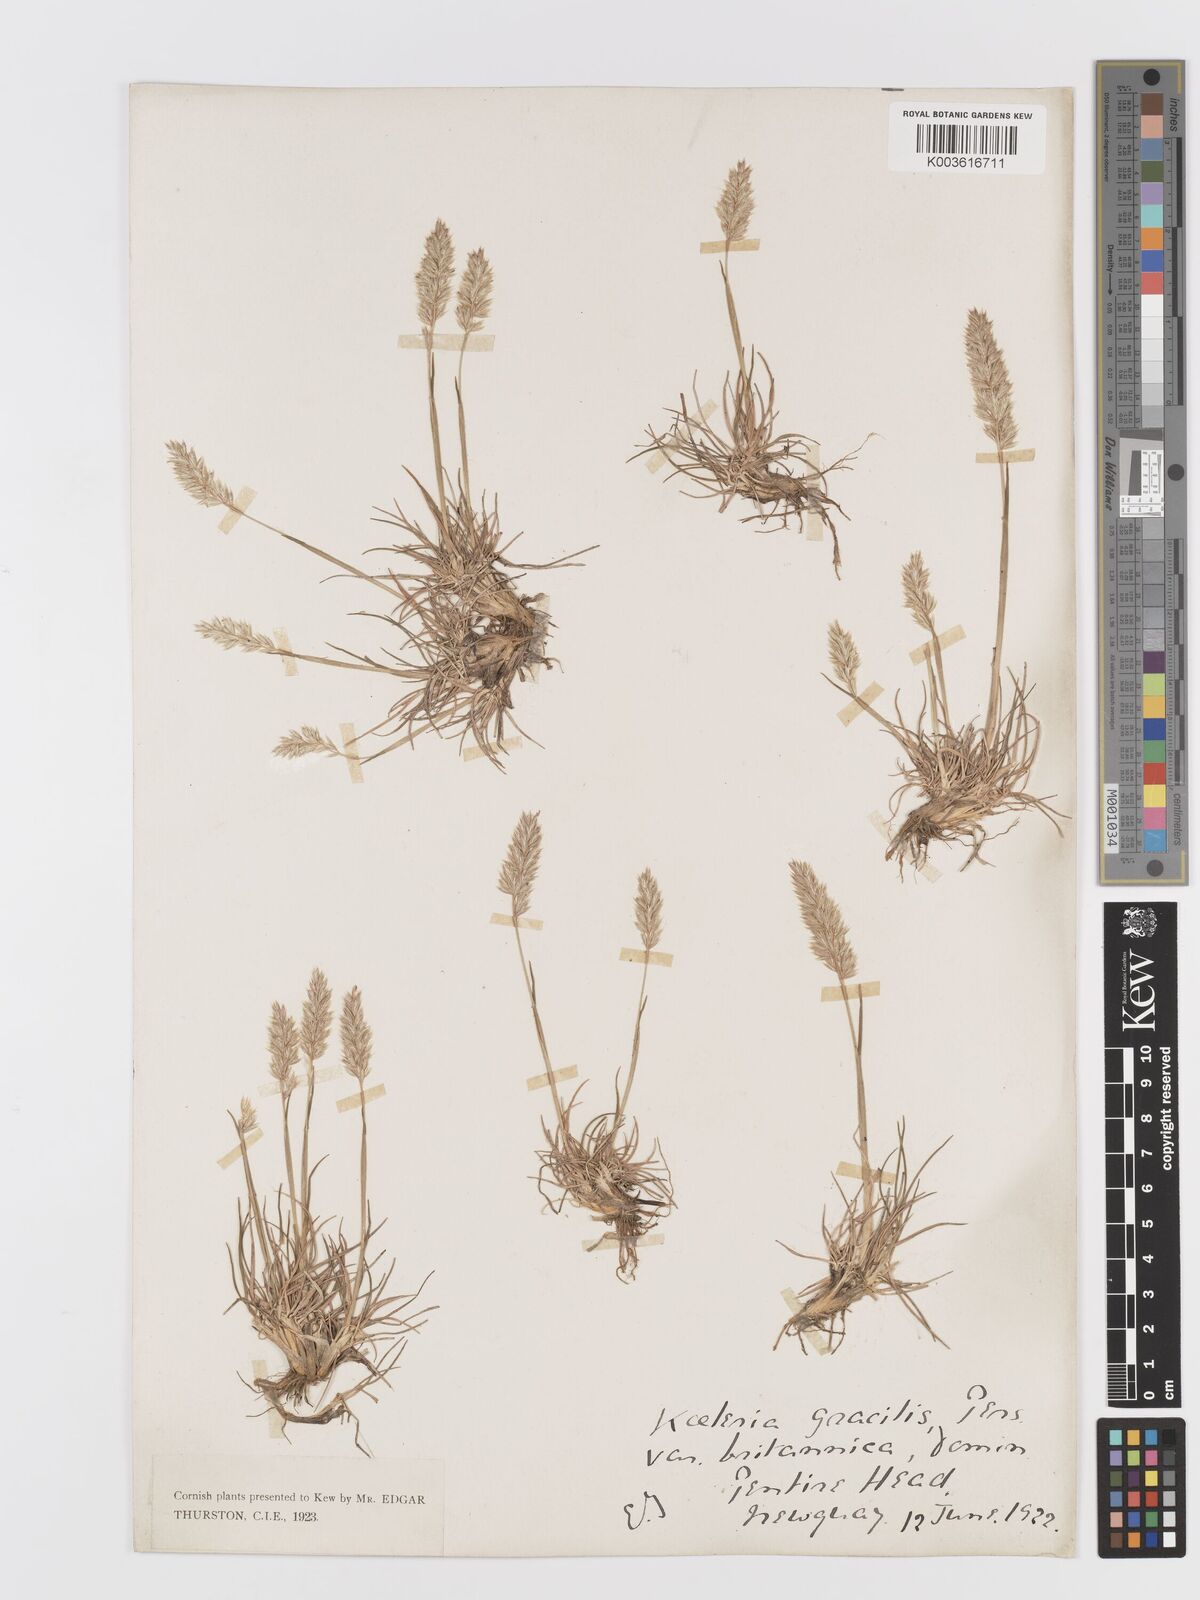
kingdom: Plantae
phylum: Tracheophyta
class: Liliopsida
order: Poales
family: Poaceae
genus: Koeleria
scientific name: Koeleria
